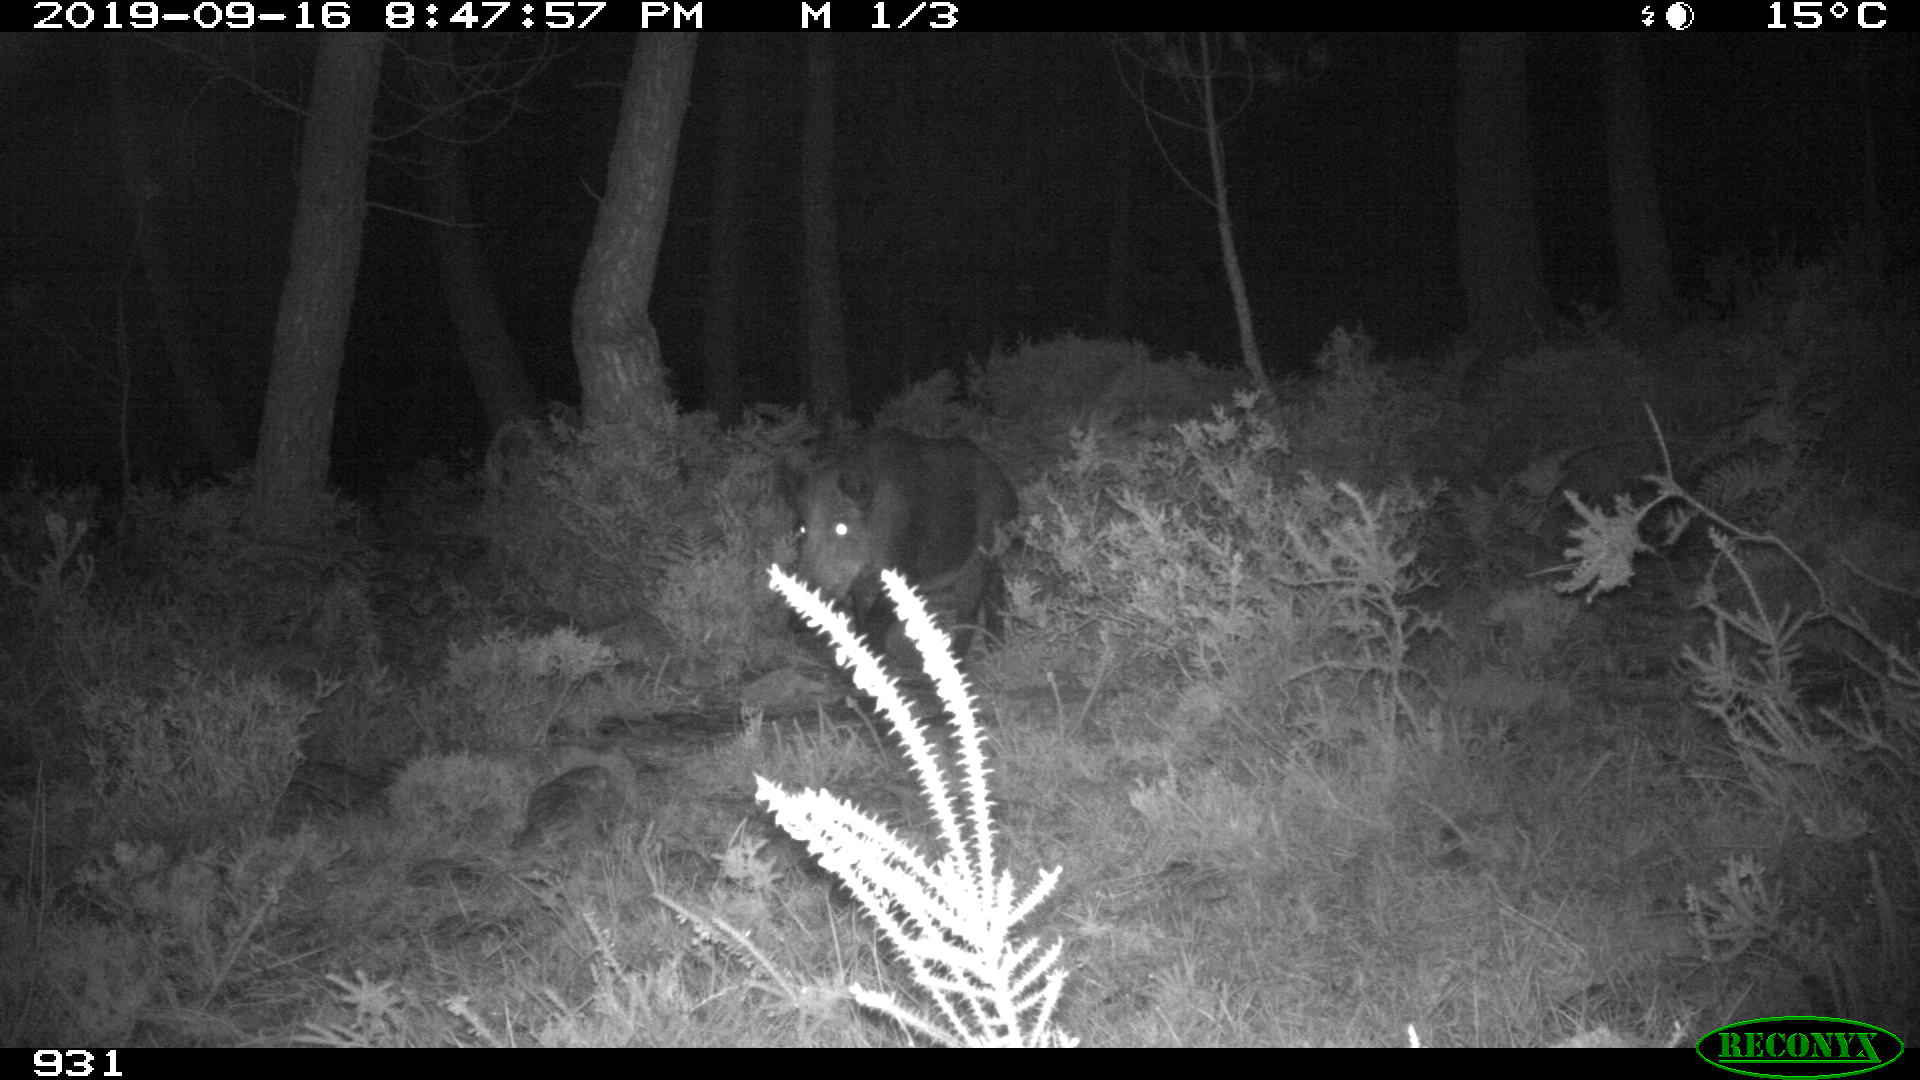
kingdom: Animalia
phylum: Chordata
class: Mammalia
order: Artiodactyla
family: Suidae
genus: Sus
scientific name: Sus scrofa
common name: Wild boar
